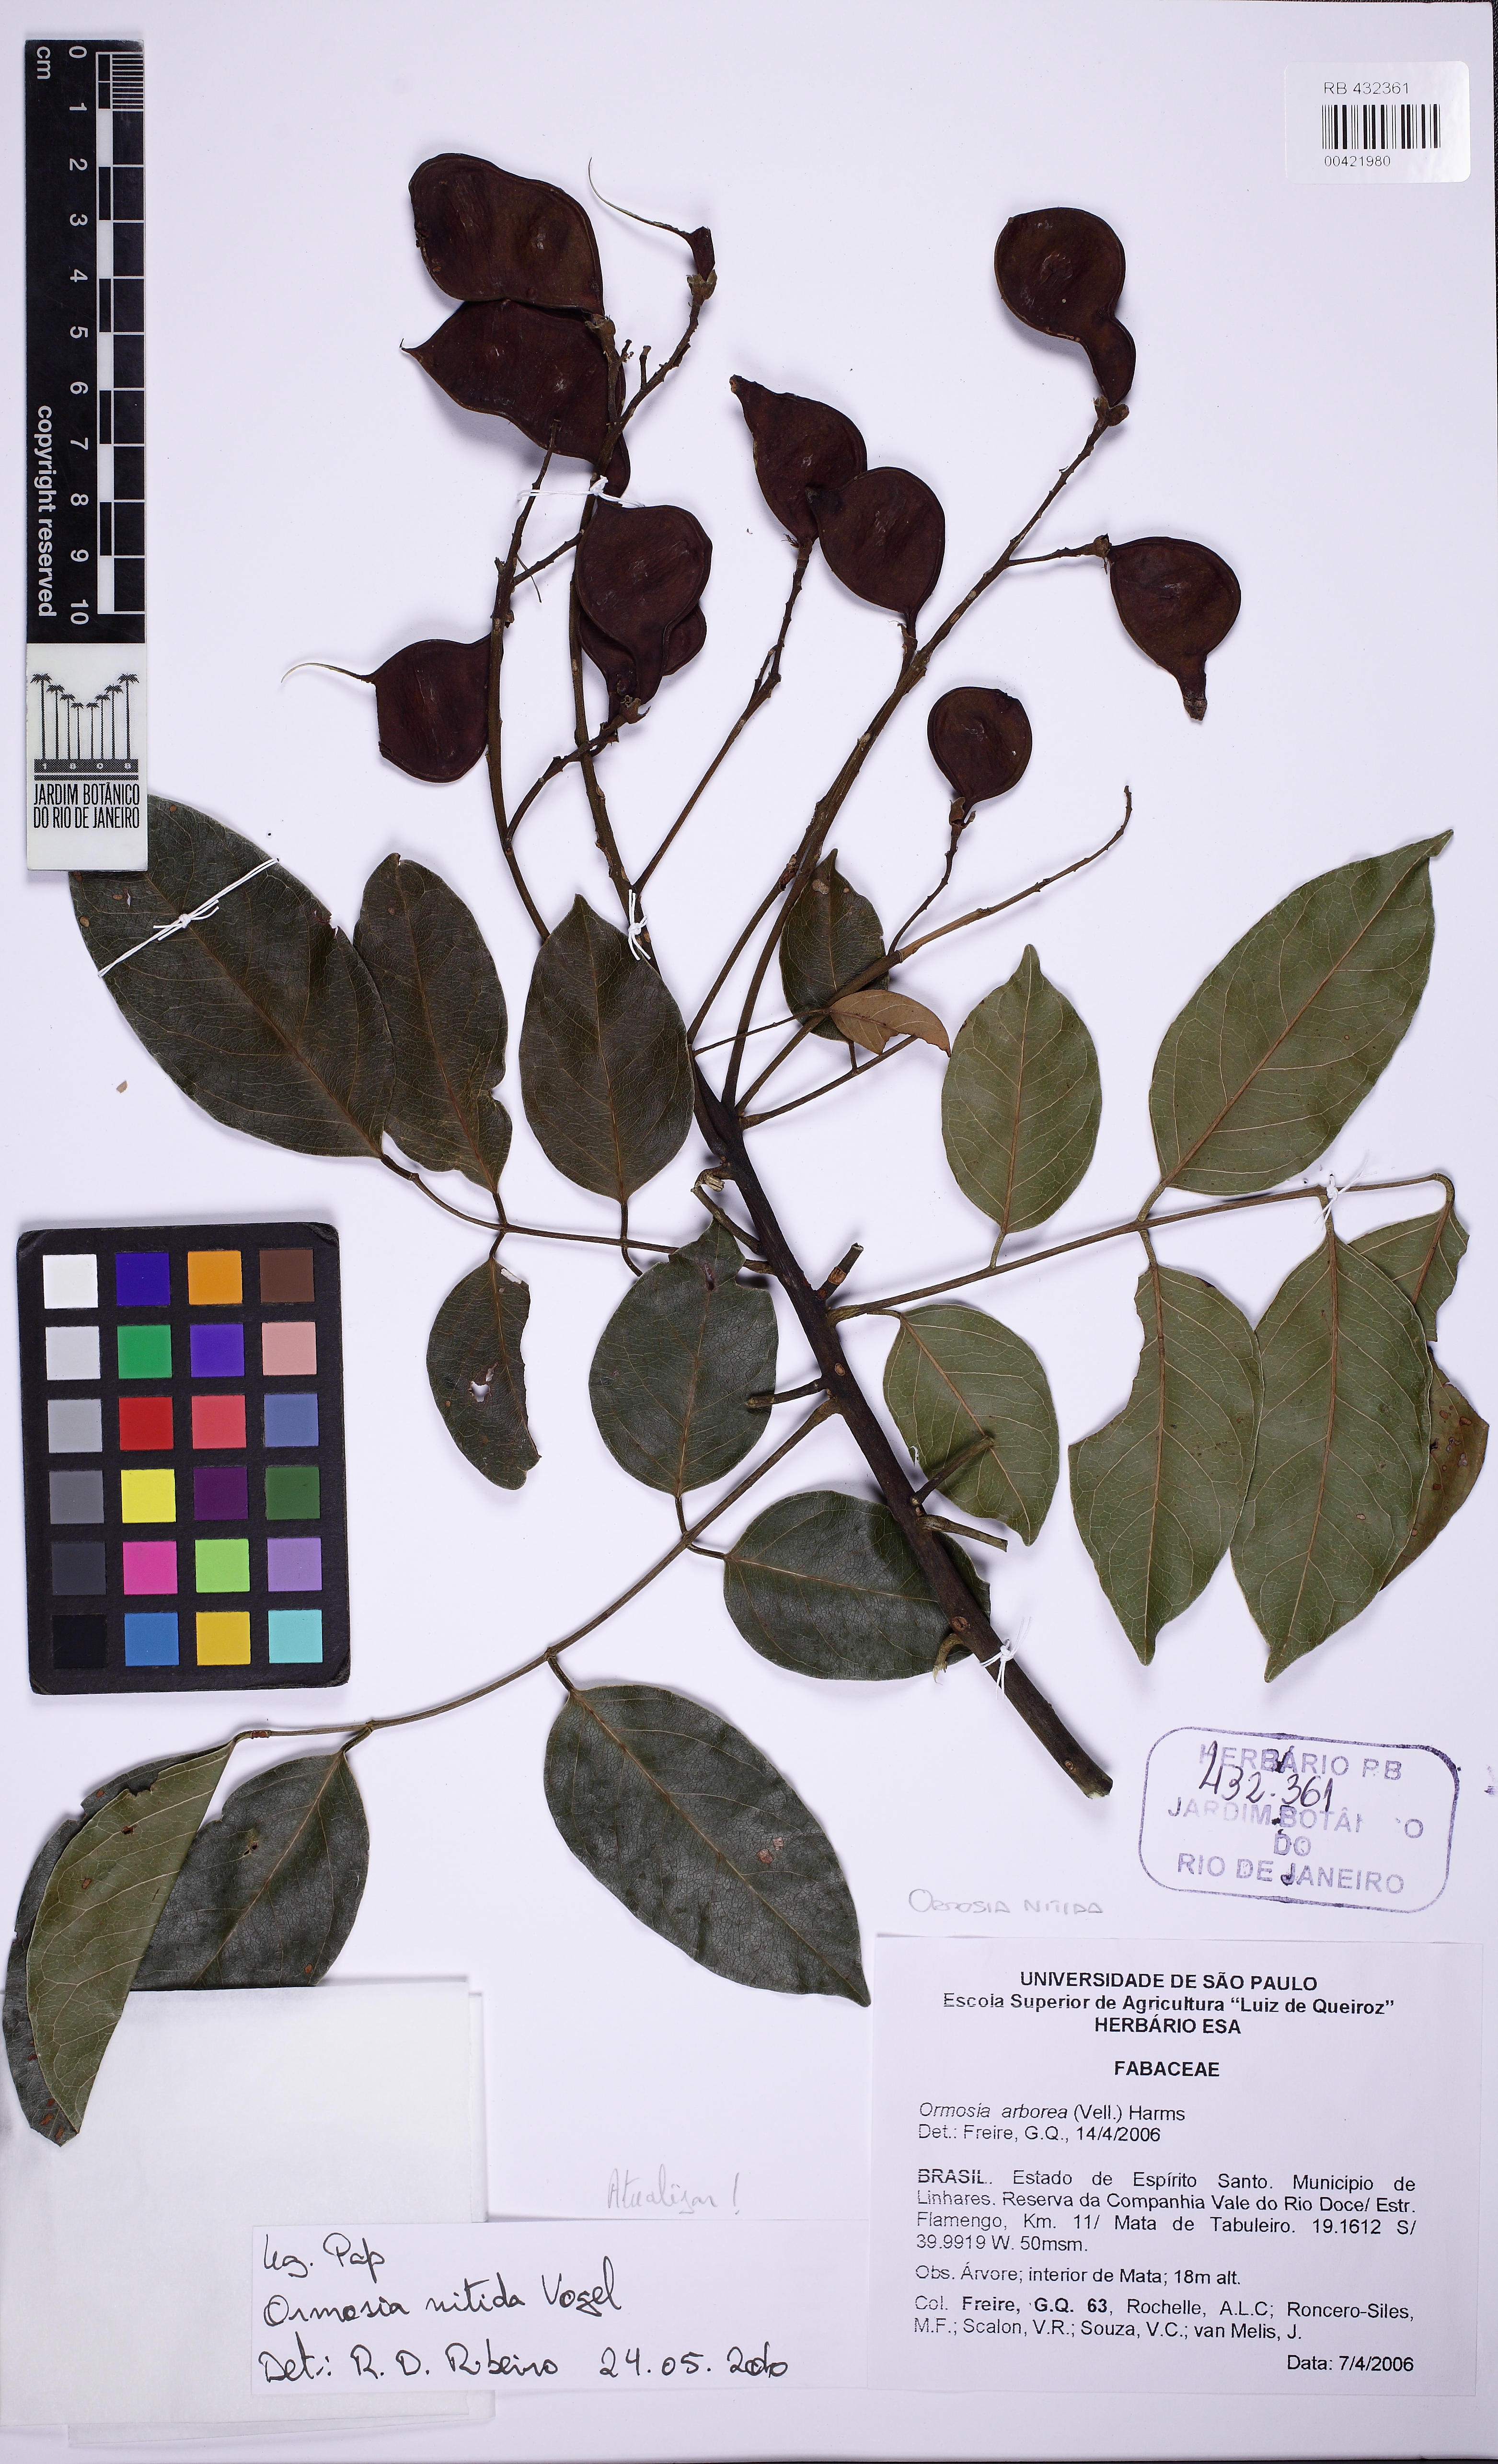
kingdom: Plantae
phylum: Tracheophyta
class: Magnoliopsida
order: Fabales
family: Fabaceae
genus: Ormosia
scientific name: Ormosia arborea
